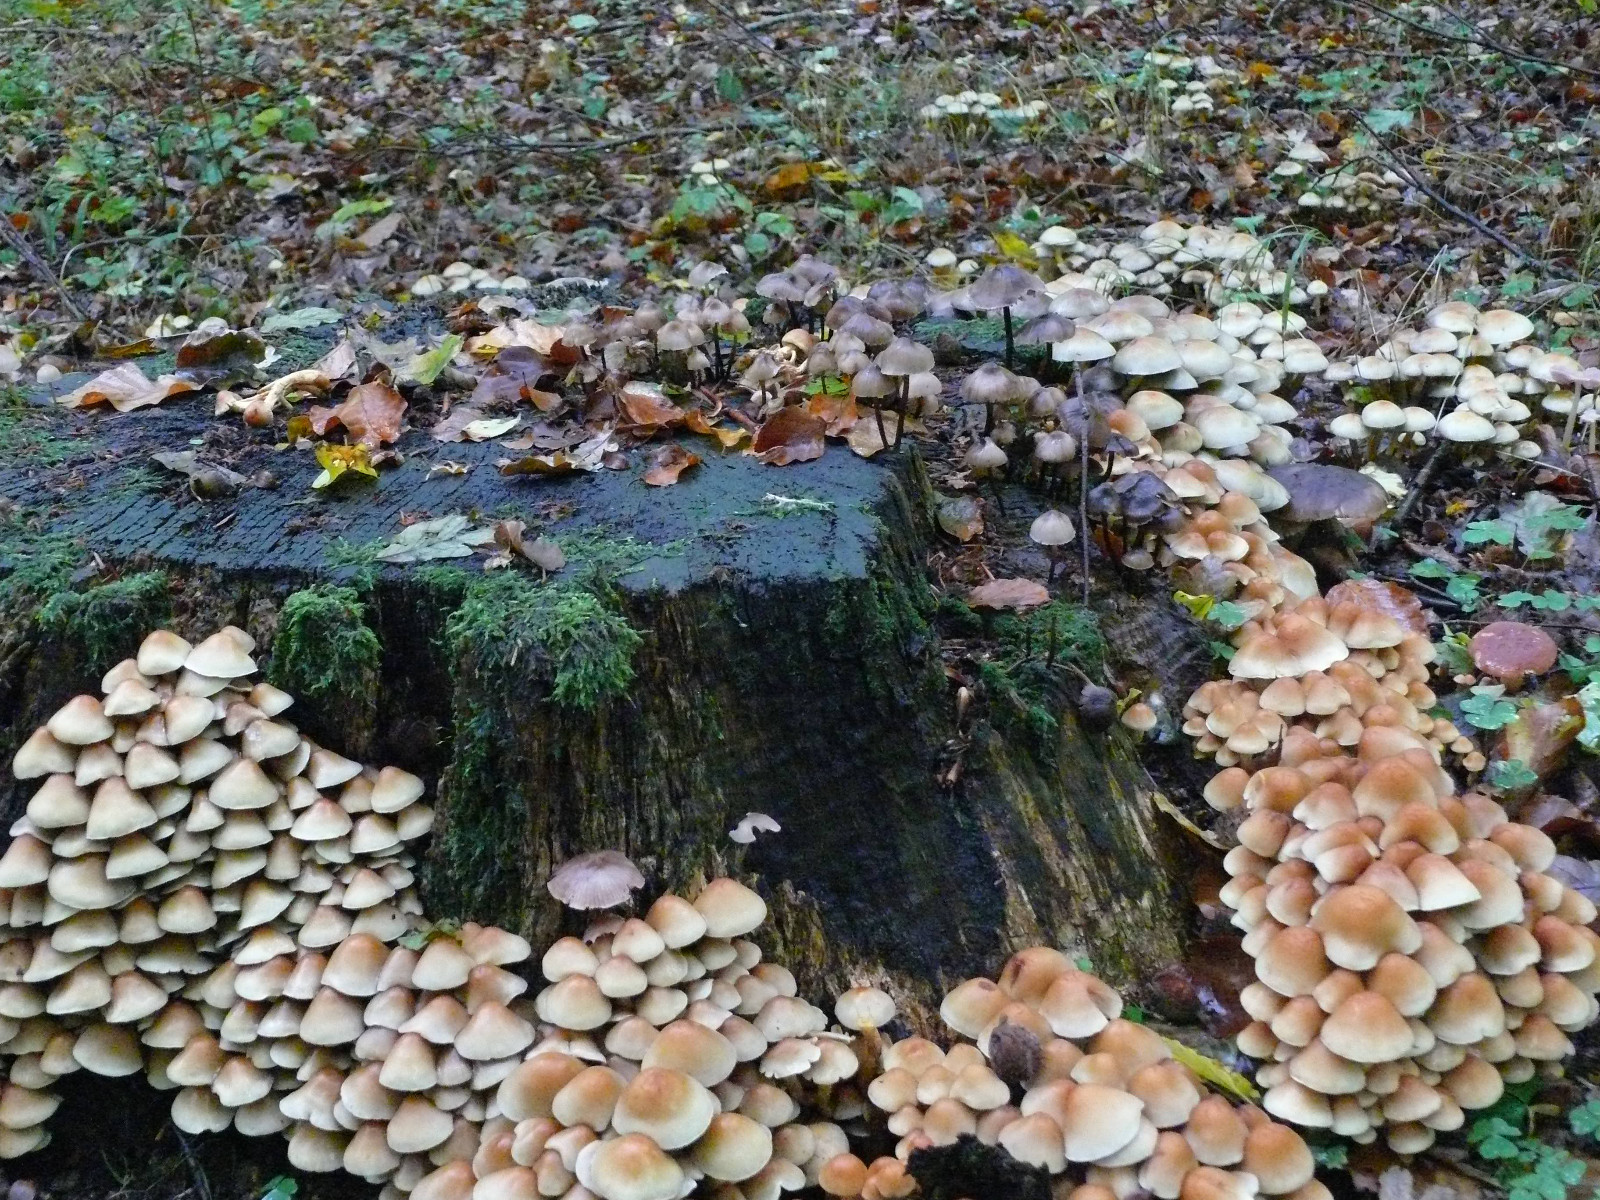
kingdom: Fungi
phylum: Basidiomycota
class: Agaricomycetes
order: Agaricales
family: Strophariaceae
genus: Hypholoma
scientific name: Hypholoma fasciculare
